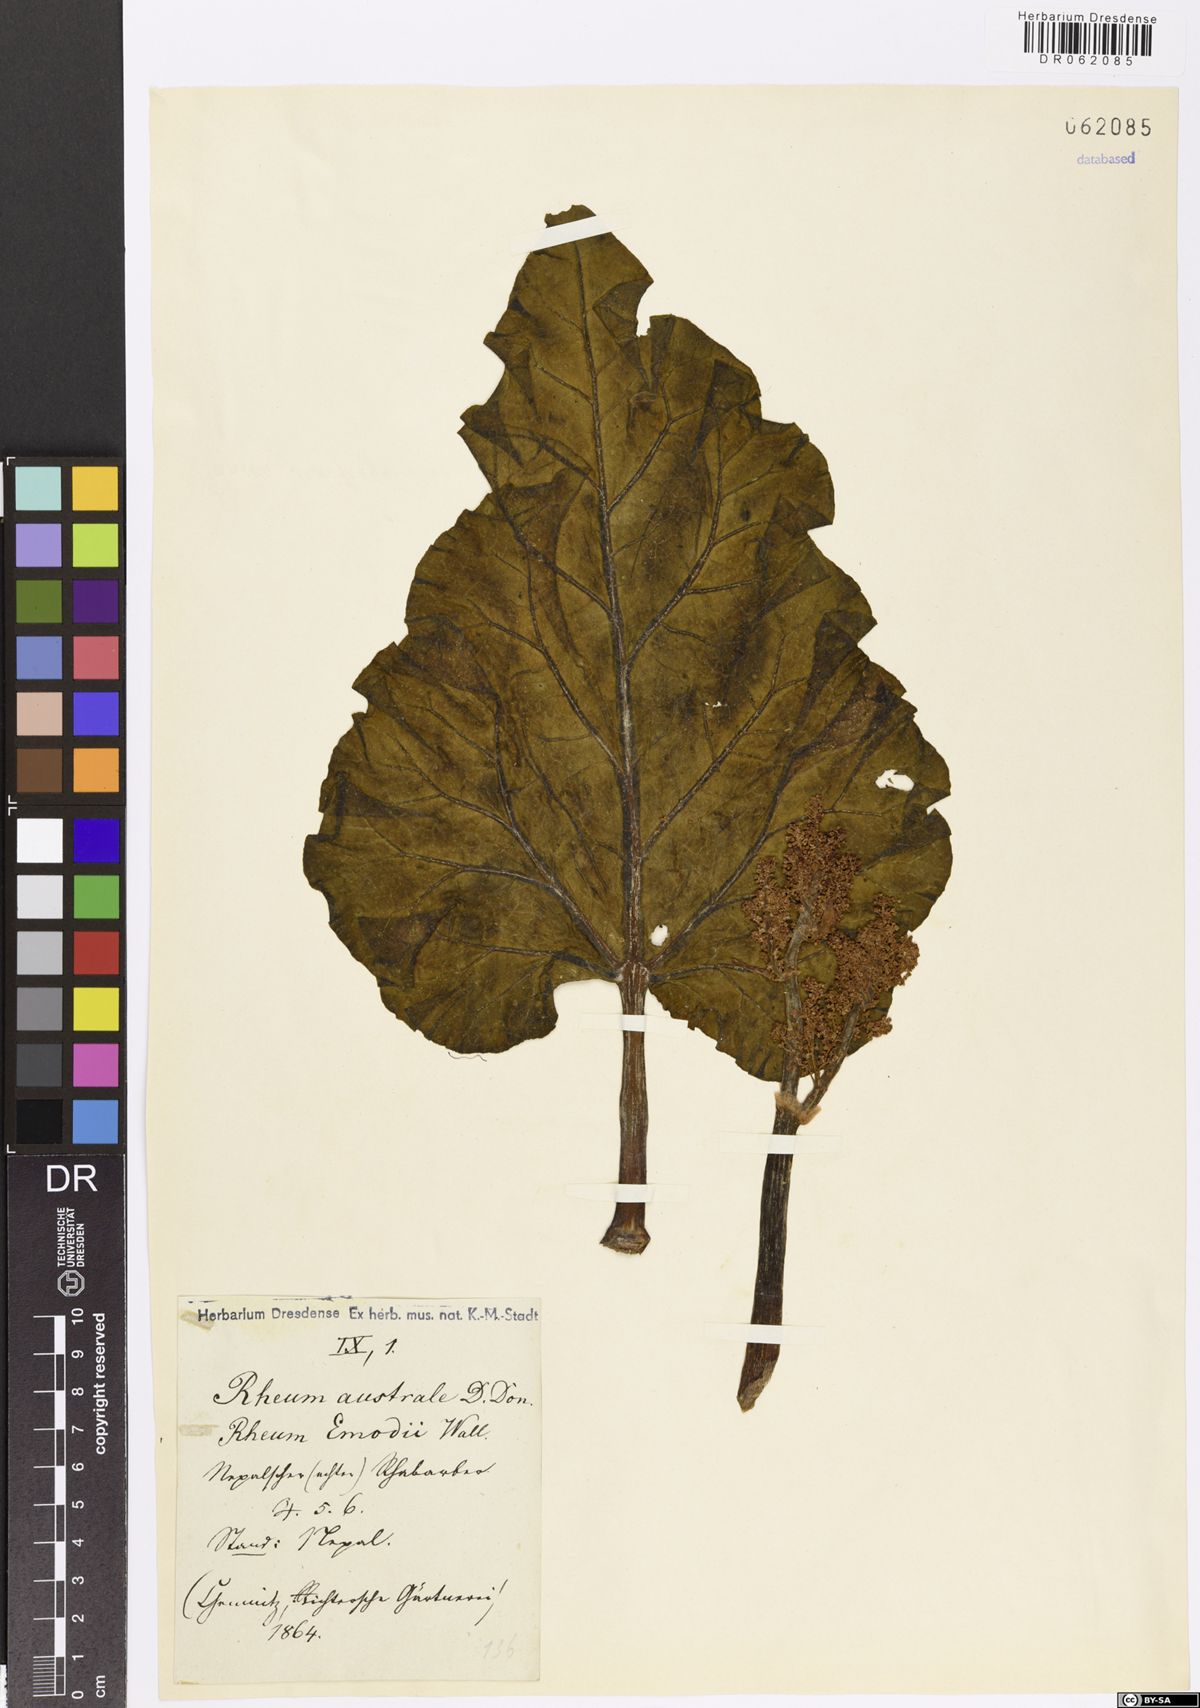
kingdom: Plantae
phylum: Tracheophyta
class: Magnoliopsida
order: Caryophyllales
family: Polygonaceae
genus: Rheum
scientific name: Rheum australe
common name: Himalayan rhubarb
